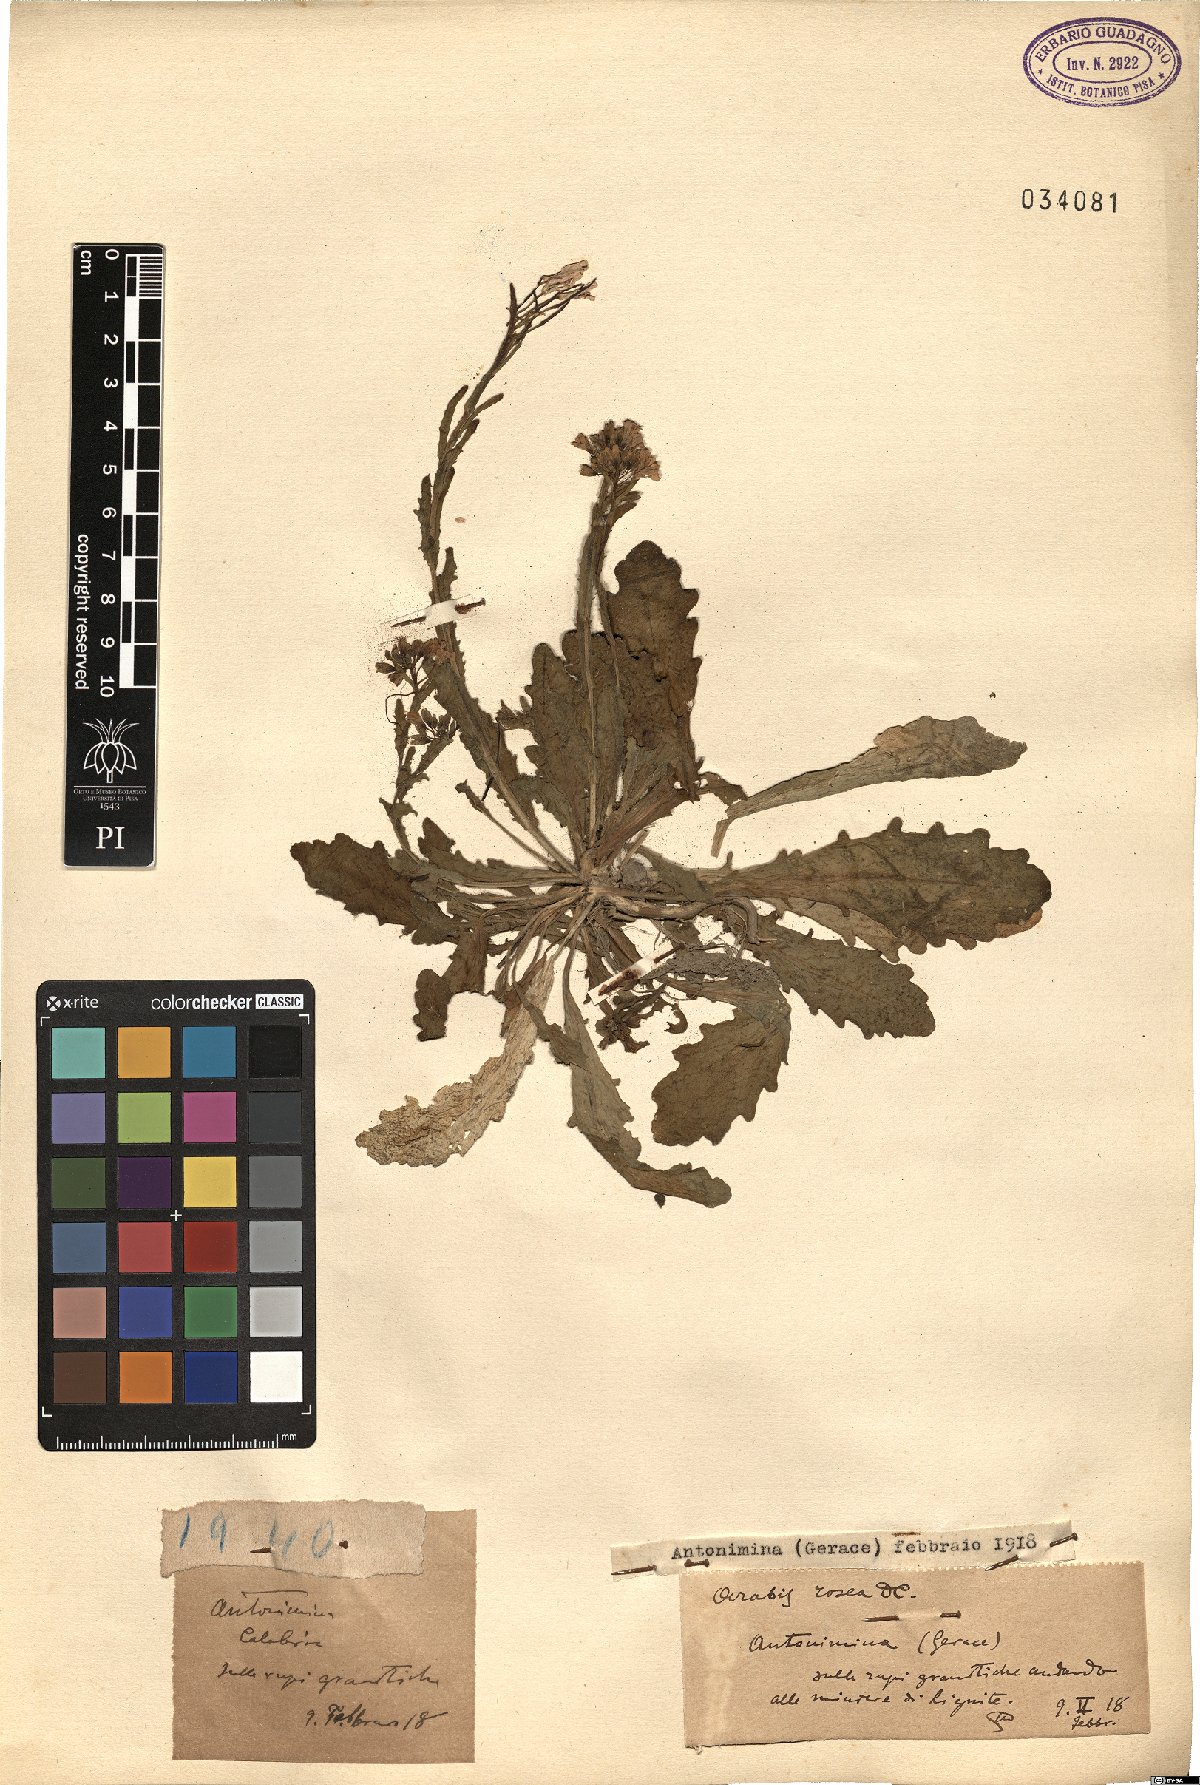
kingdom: Plantae
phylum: Tracheophyta
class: Magnoliopsida
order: Brassicales
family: Brassicaceae
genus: Arabis
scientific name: Arabis collina
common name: Rosy cress
